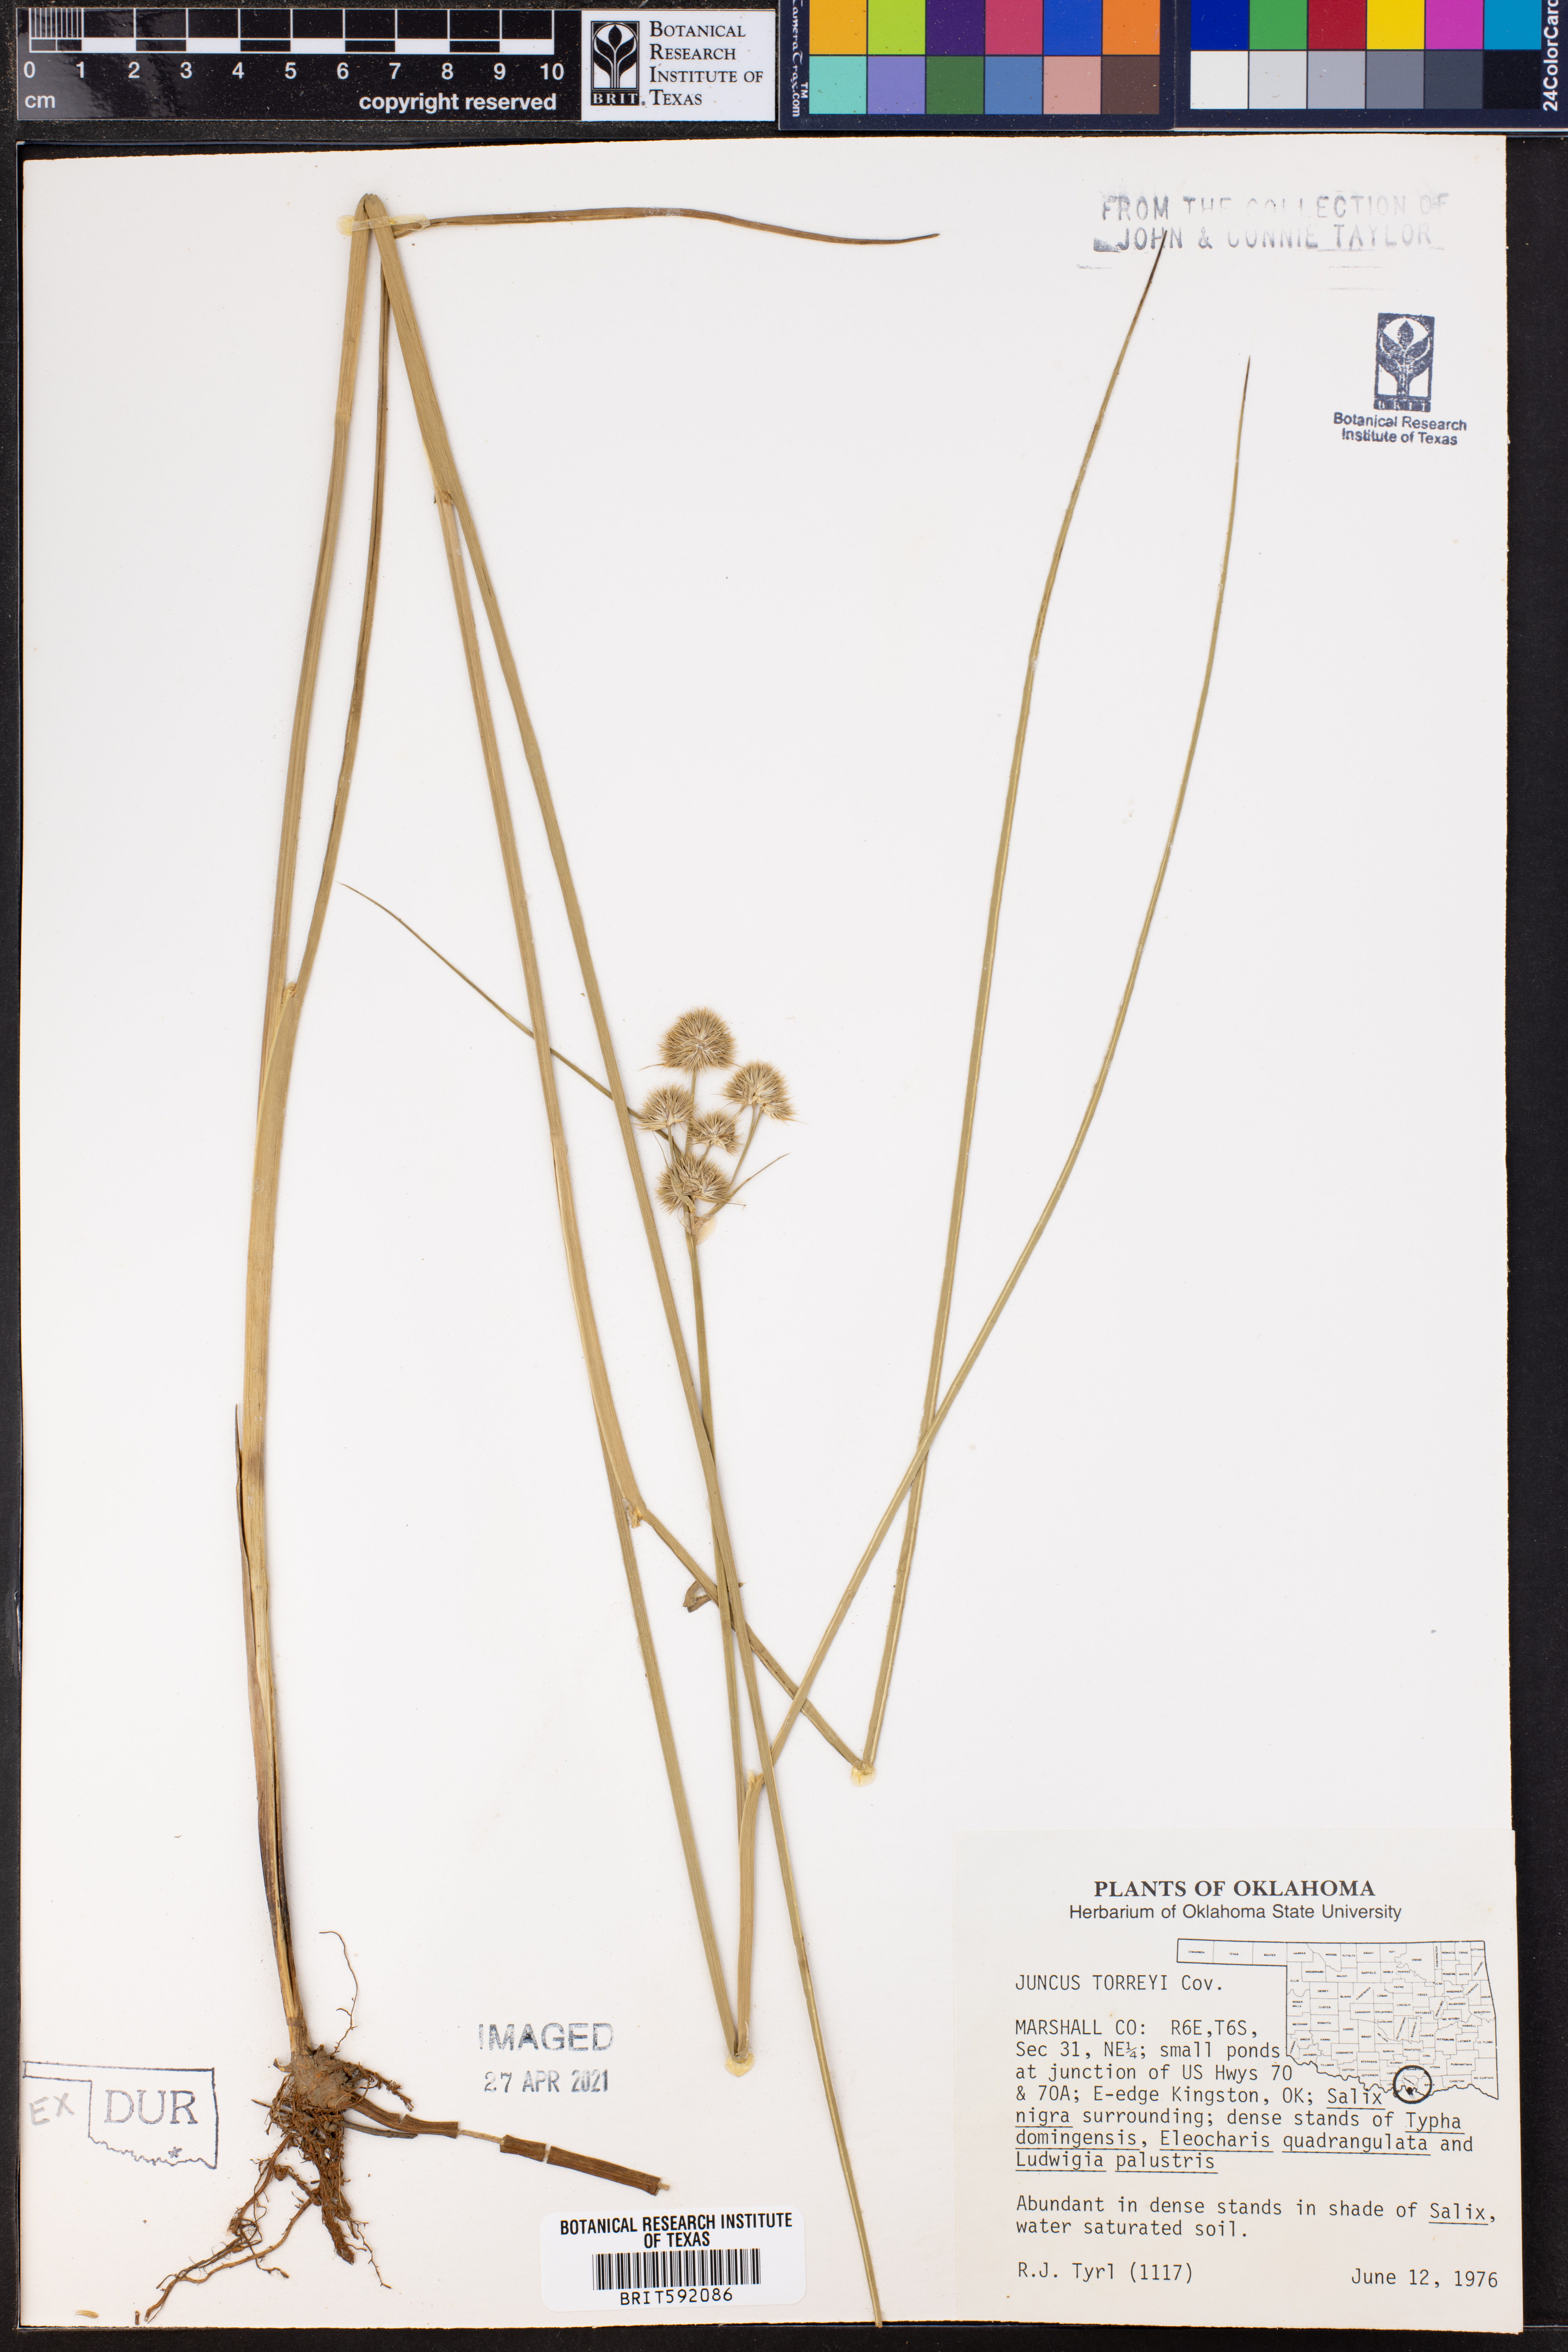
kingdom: Plantae
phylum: Tracheophyta
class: Liliopsida
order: Poales
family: Juncaceae
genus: Juncus
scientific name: Juncus torreyi
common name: Torrey's rush
